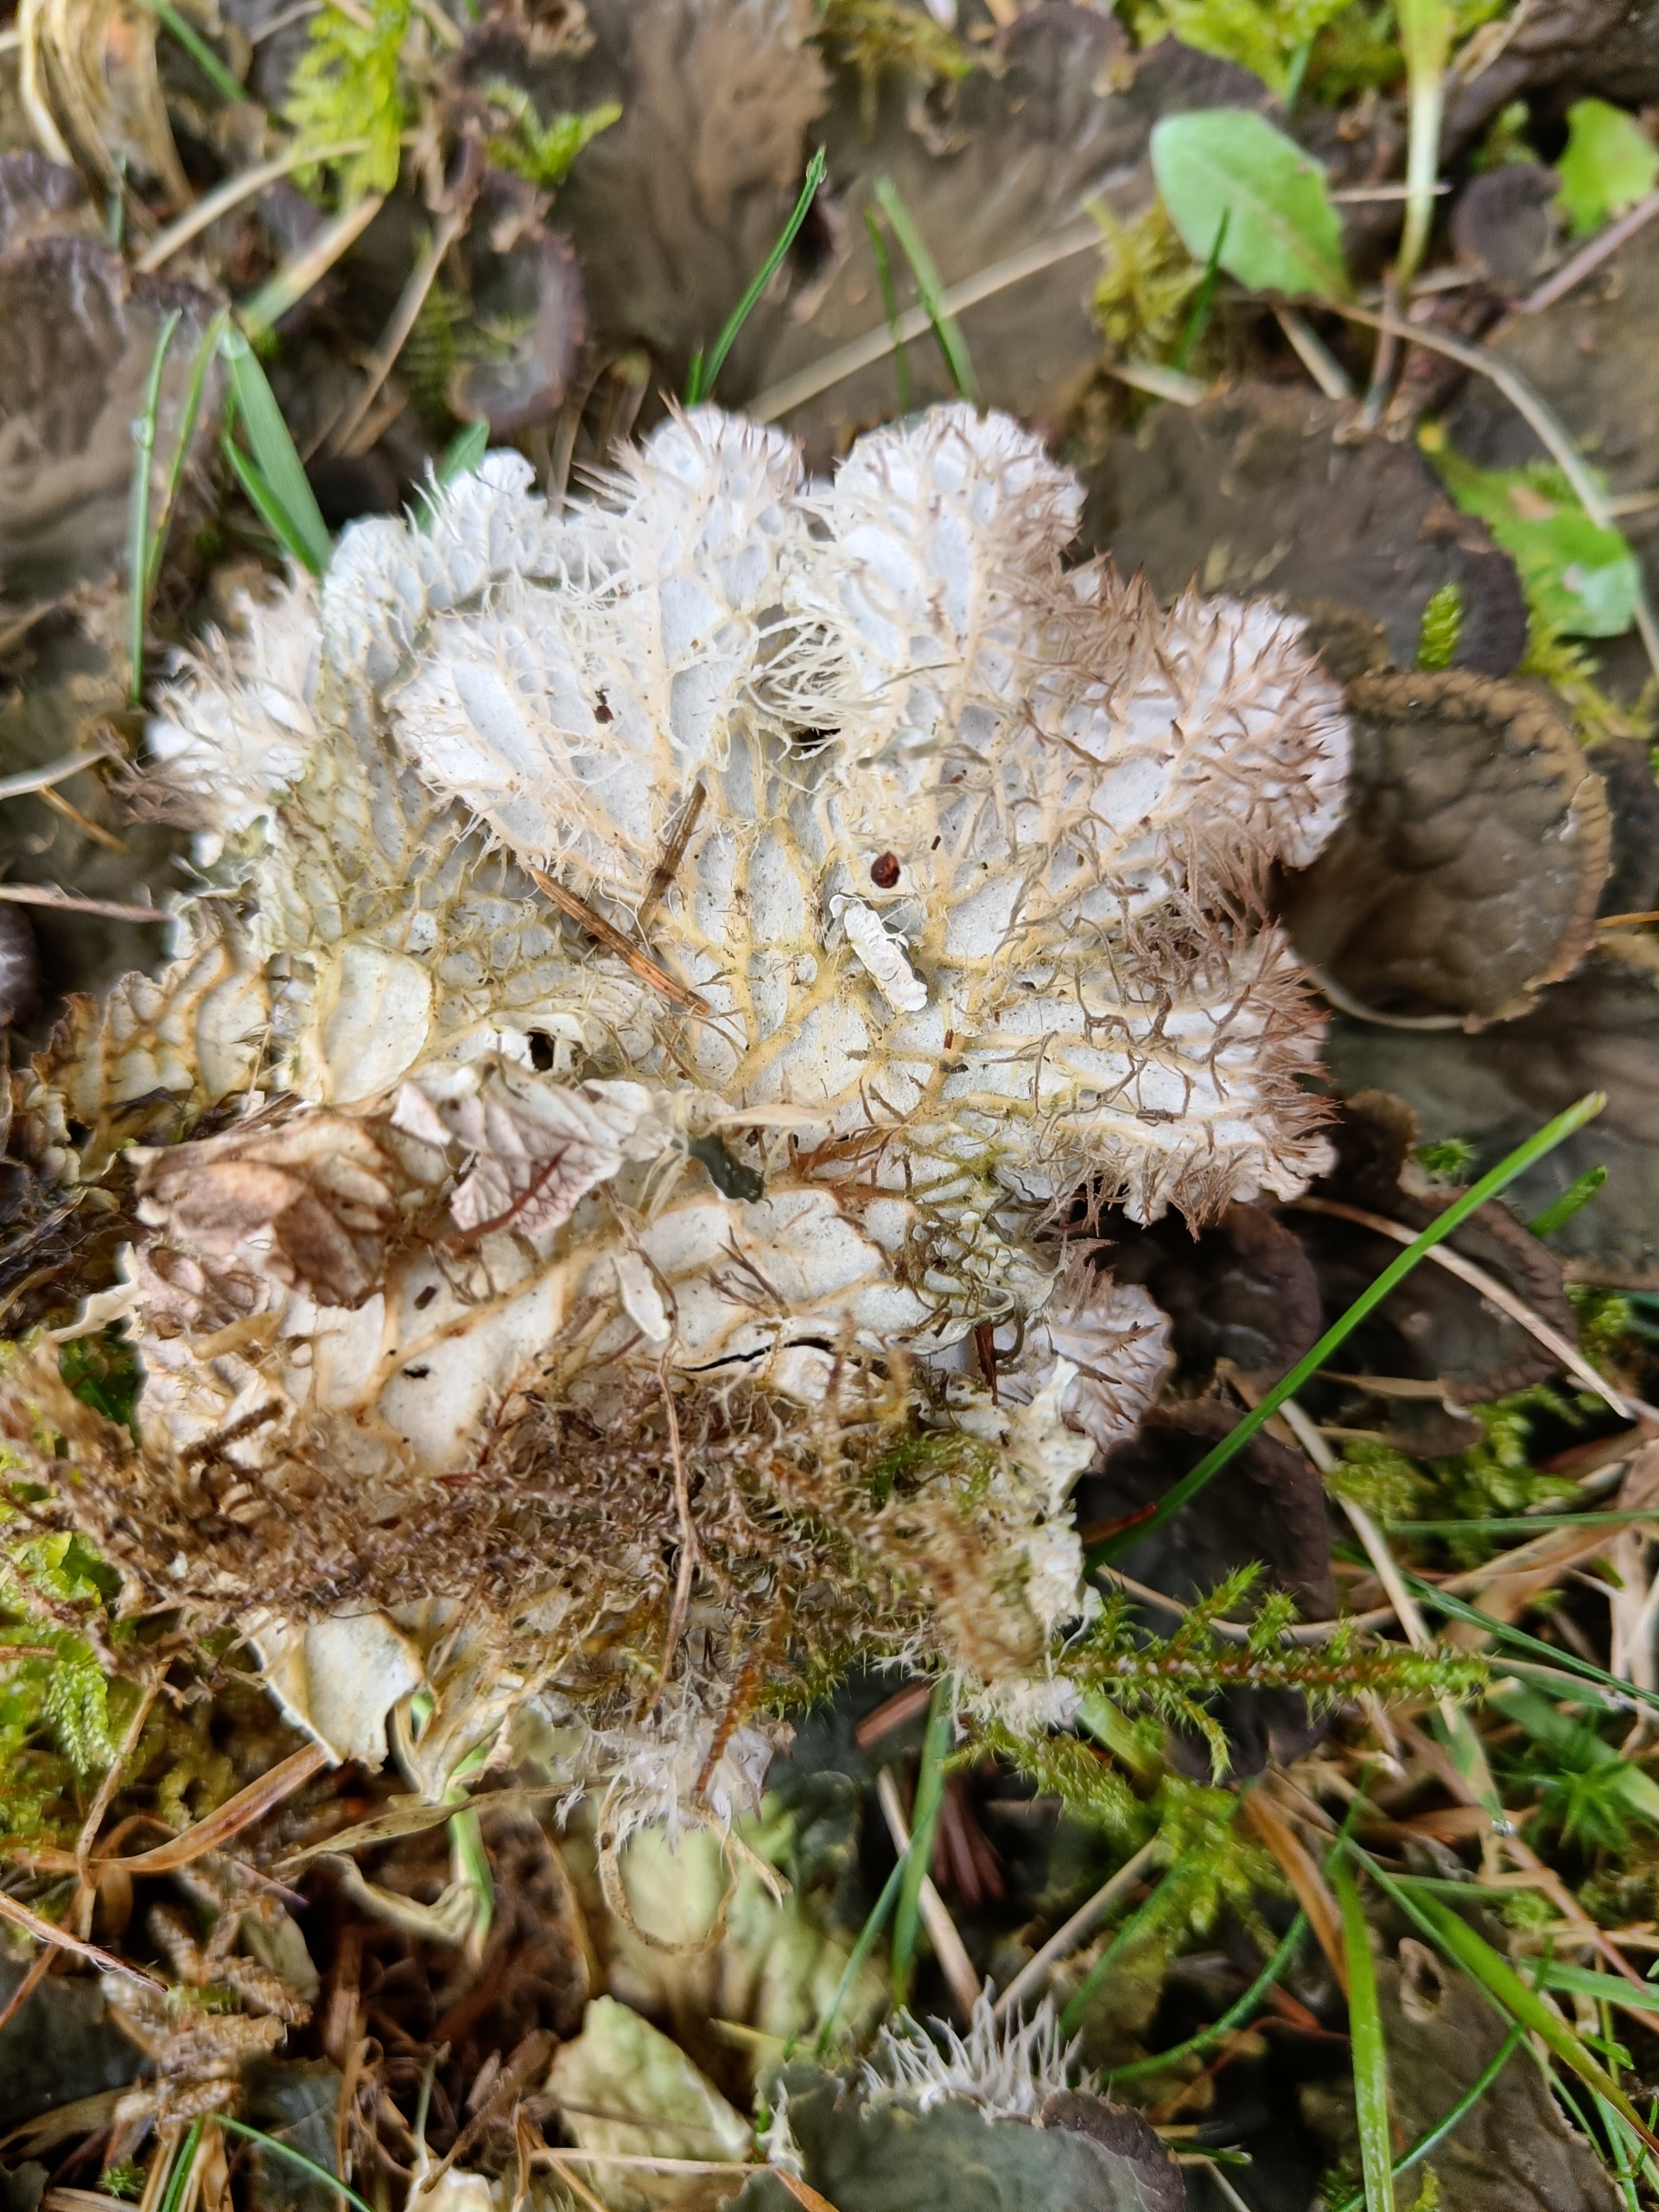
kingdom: Fungi
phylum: Ascomycota
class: Lecanoromycetes
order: Peltigerales
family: Peltigeraceae
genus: Peltigera
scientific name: Peltigera membranacea
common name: Tynd skjoldlav
